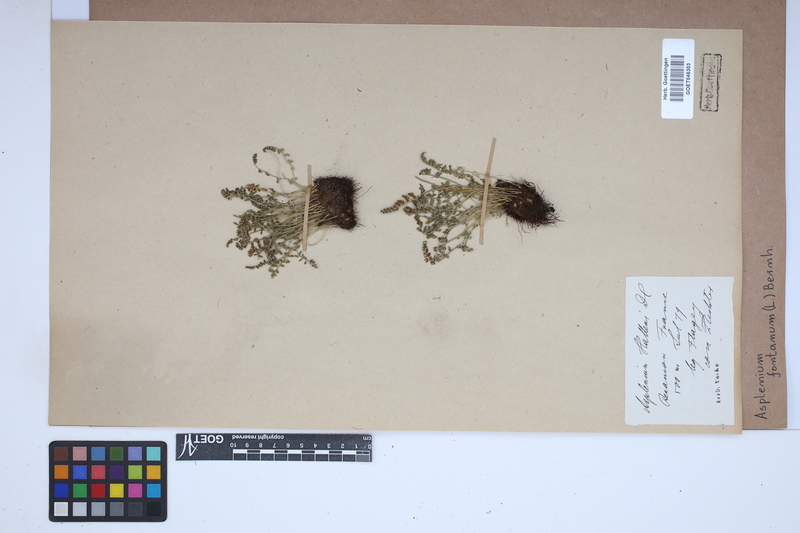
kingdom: Plantae
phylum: Tracheophyta
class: Polypodiopsida
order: Polypodiales
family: Aspleniaceae
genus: Asplenium
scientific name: Asplenium fontanum
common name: Fountain spleenwort
